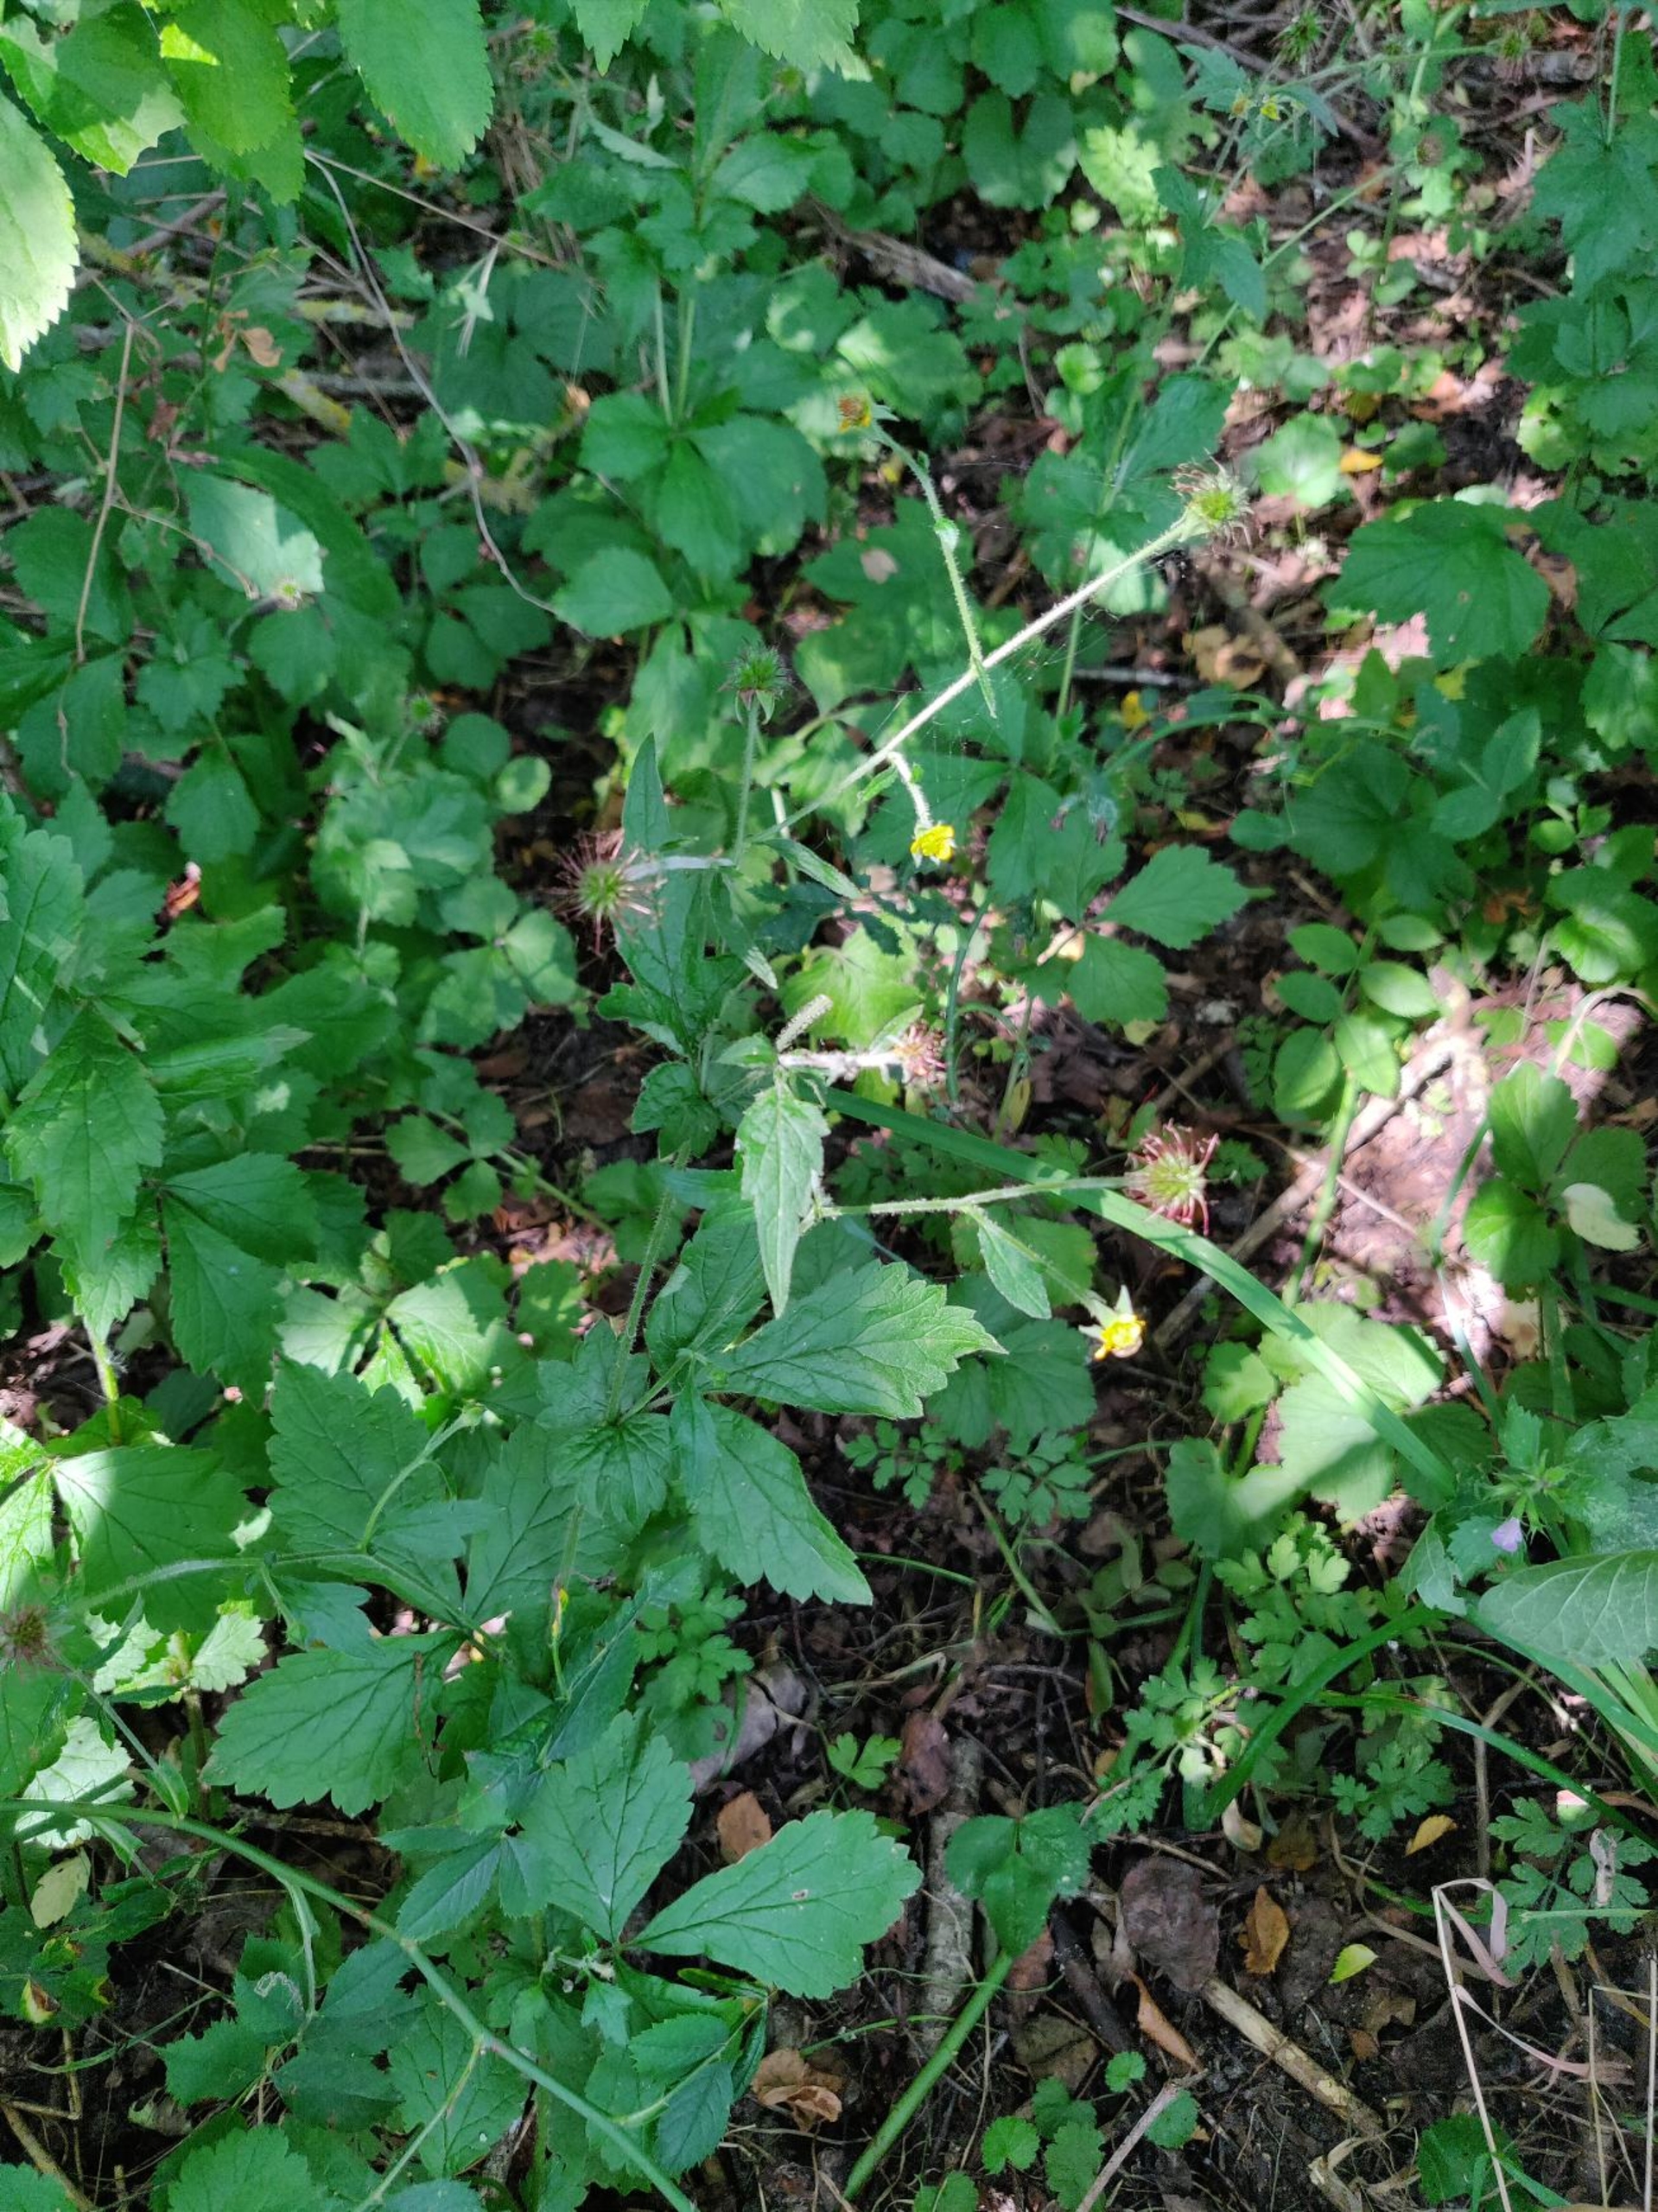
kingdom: Plantae
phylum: Tracheophyta
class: Magnoliopsida
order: Rosales
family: Rosaceae
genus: Geum
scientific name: Geum urbanum
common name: Feber-nellikerod
